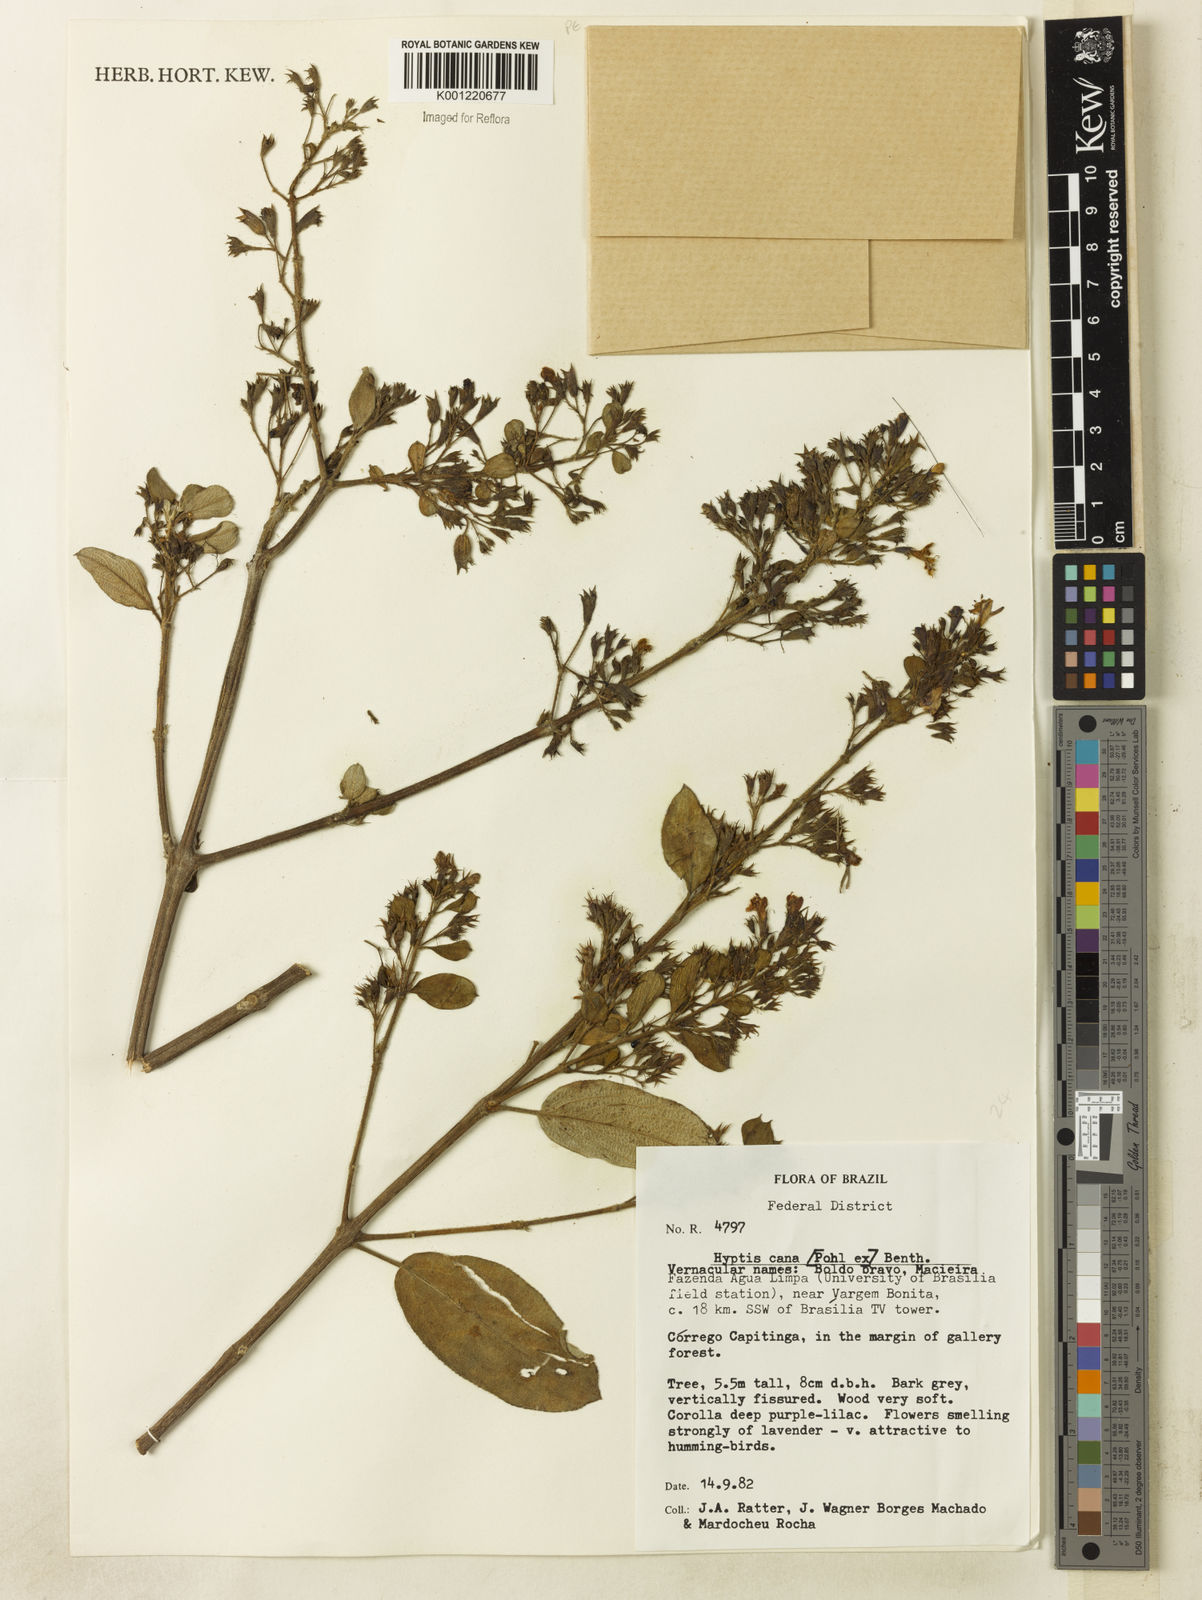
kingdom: Plantae
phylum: Tracheophyta
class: Magnoliopsida
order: Lamiales
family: Lamiaceae
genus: Hyptidendron
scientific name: Hyptidendron canum
